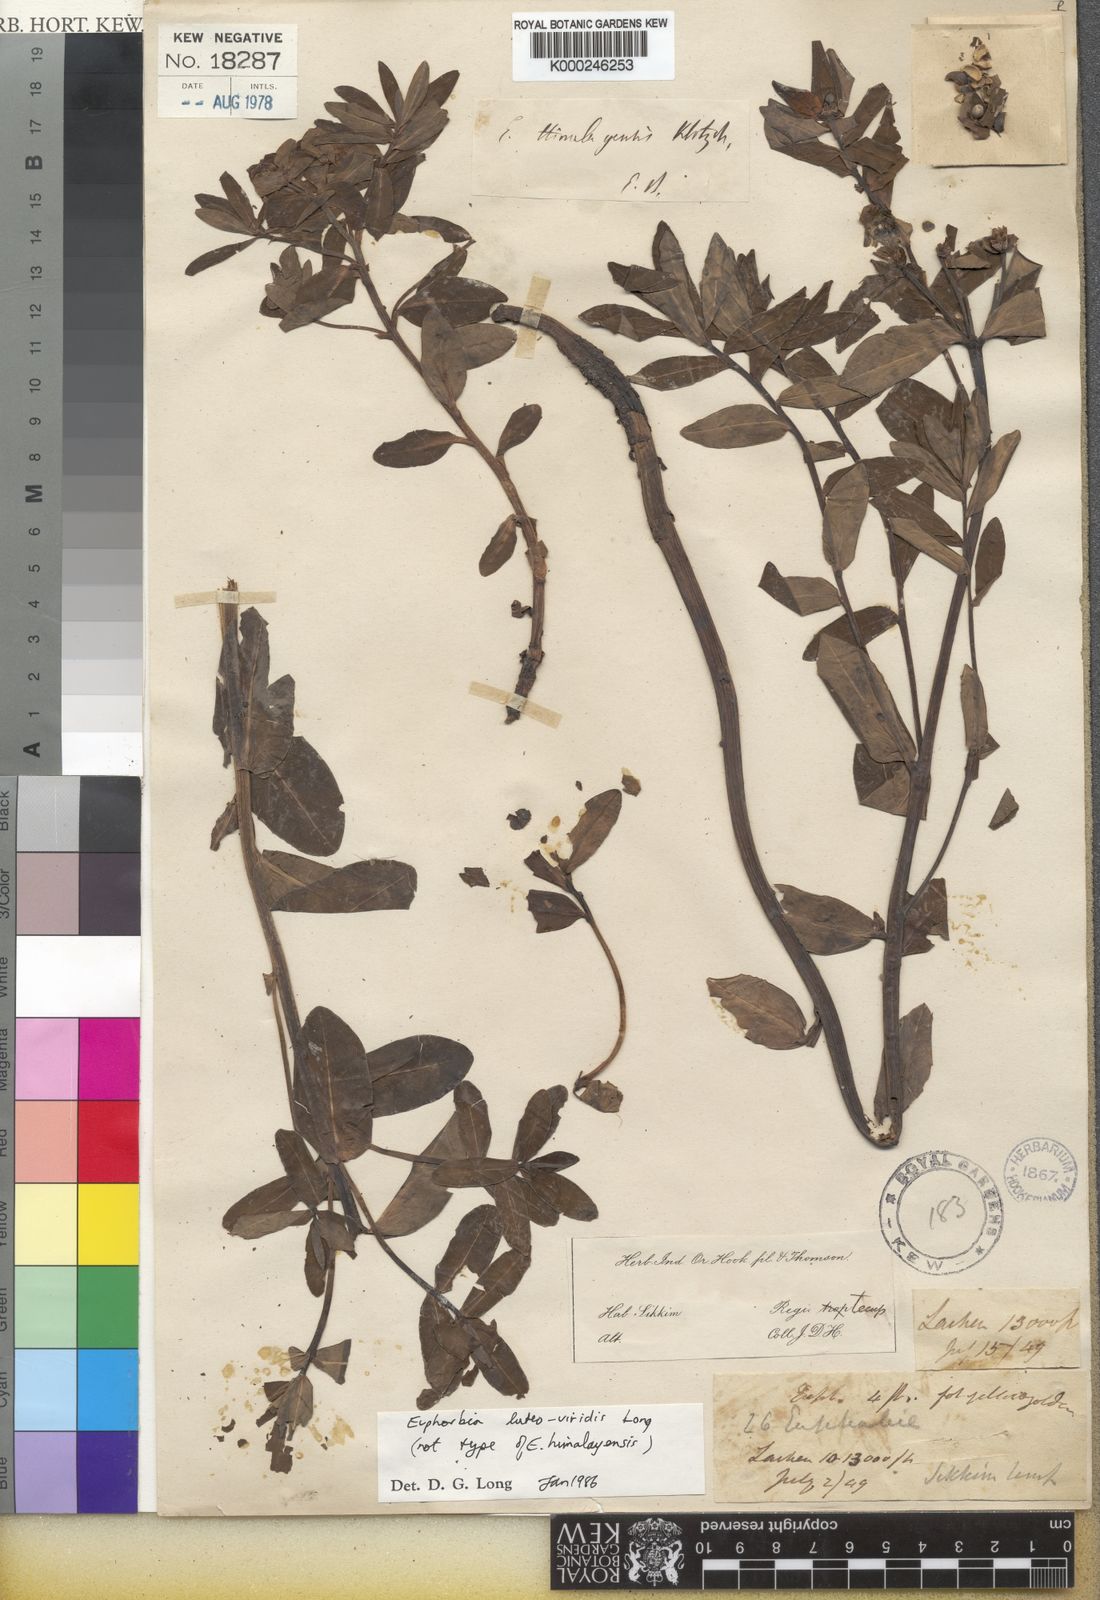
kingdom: Plantae
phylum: Tracheophyta
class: Magnoliopsida
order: Malpighiales
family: Euphorbiaceae
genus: Euphorbia
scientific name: Euphorbia stracheyi
